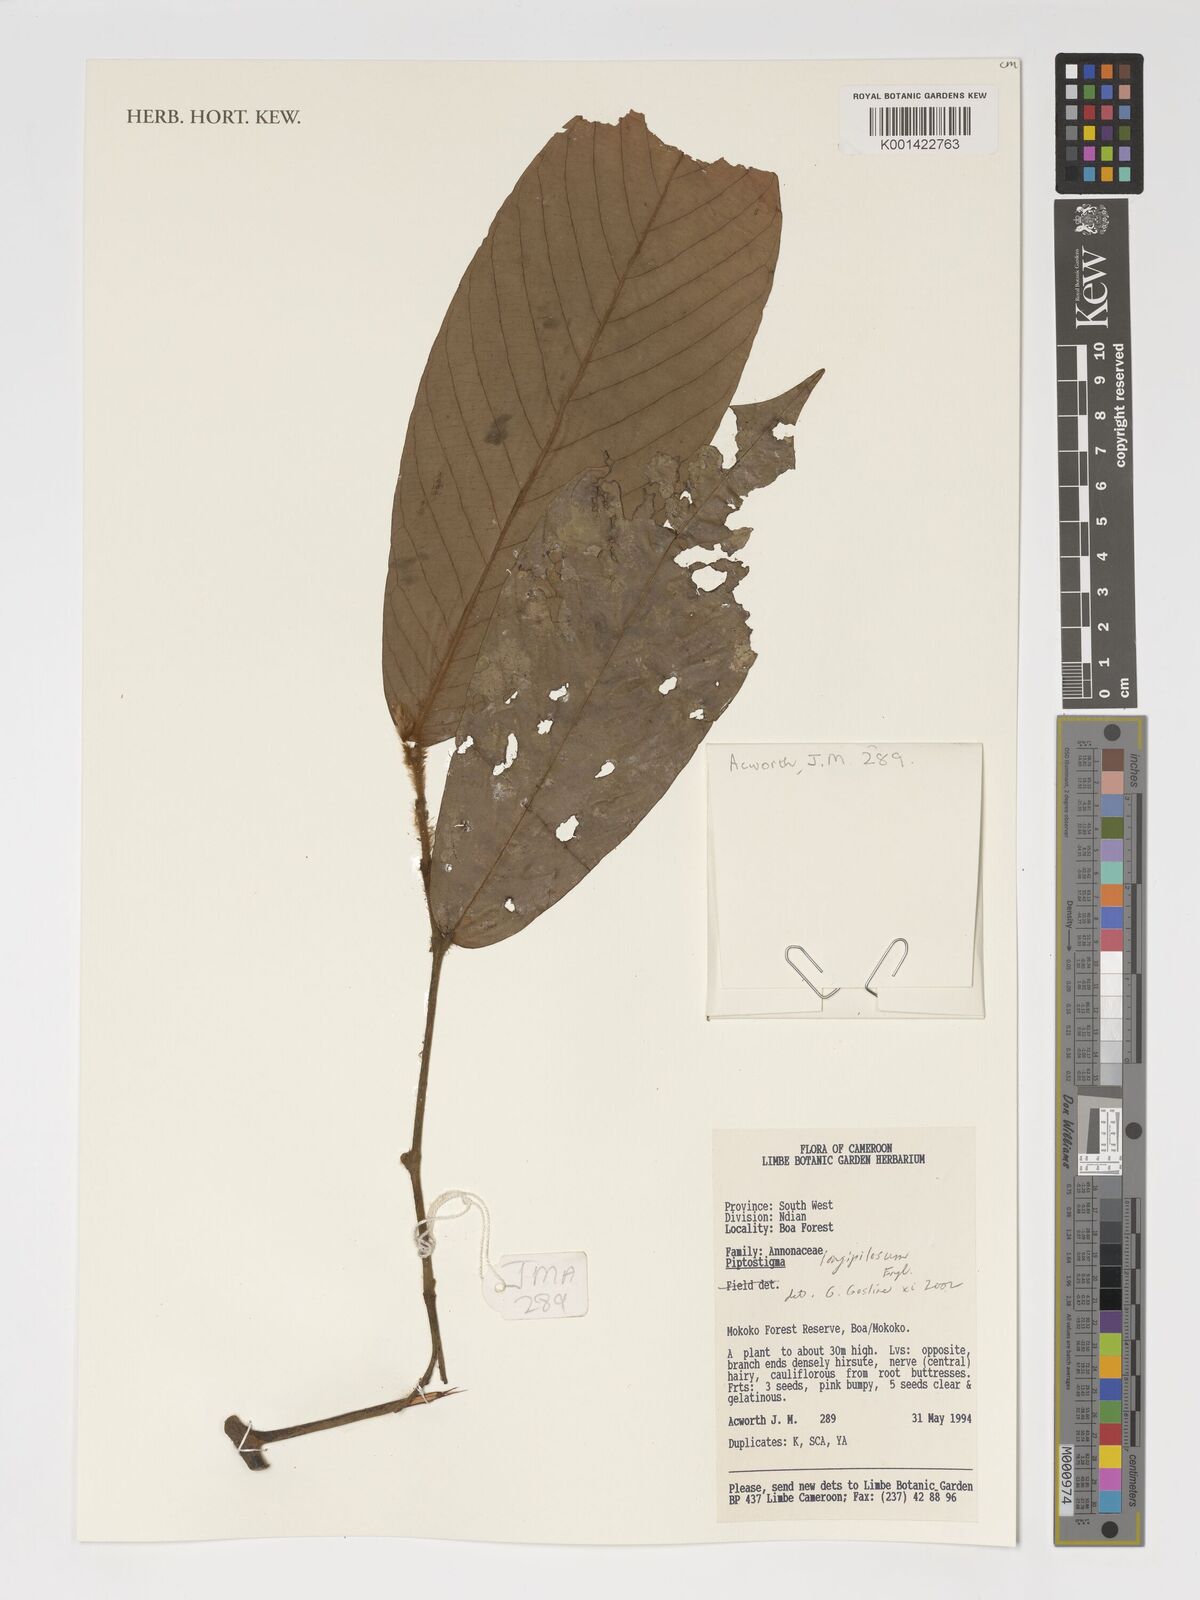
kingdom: Plantae
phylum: Tracheophyta
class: Magnoliopsida
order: Magnoliales
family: Annonaceae
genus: Piptostigma
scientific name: Piptostigma longepilosum
